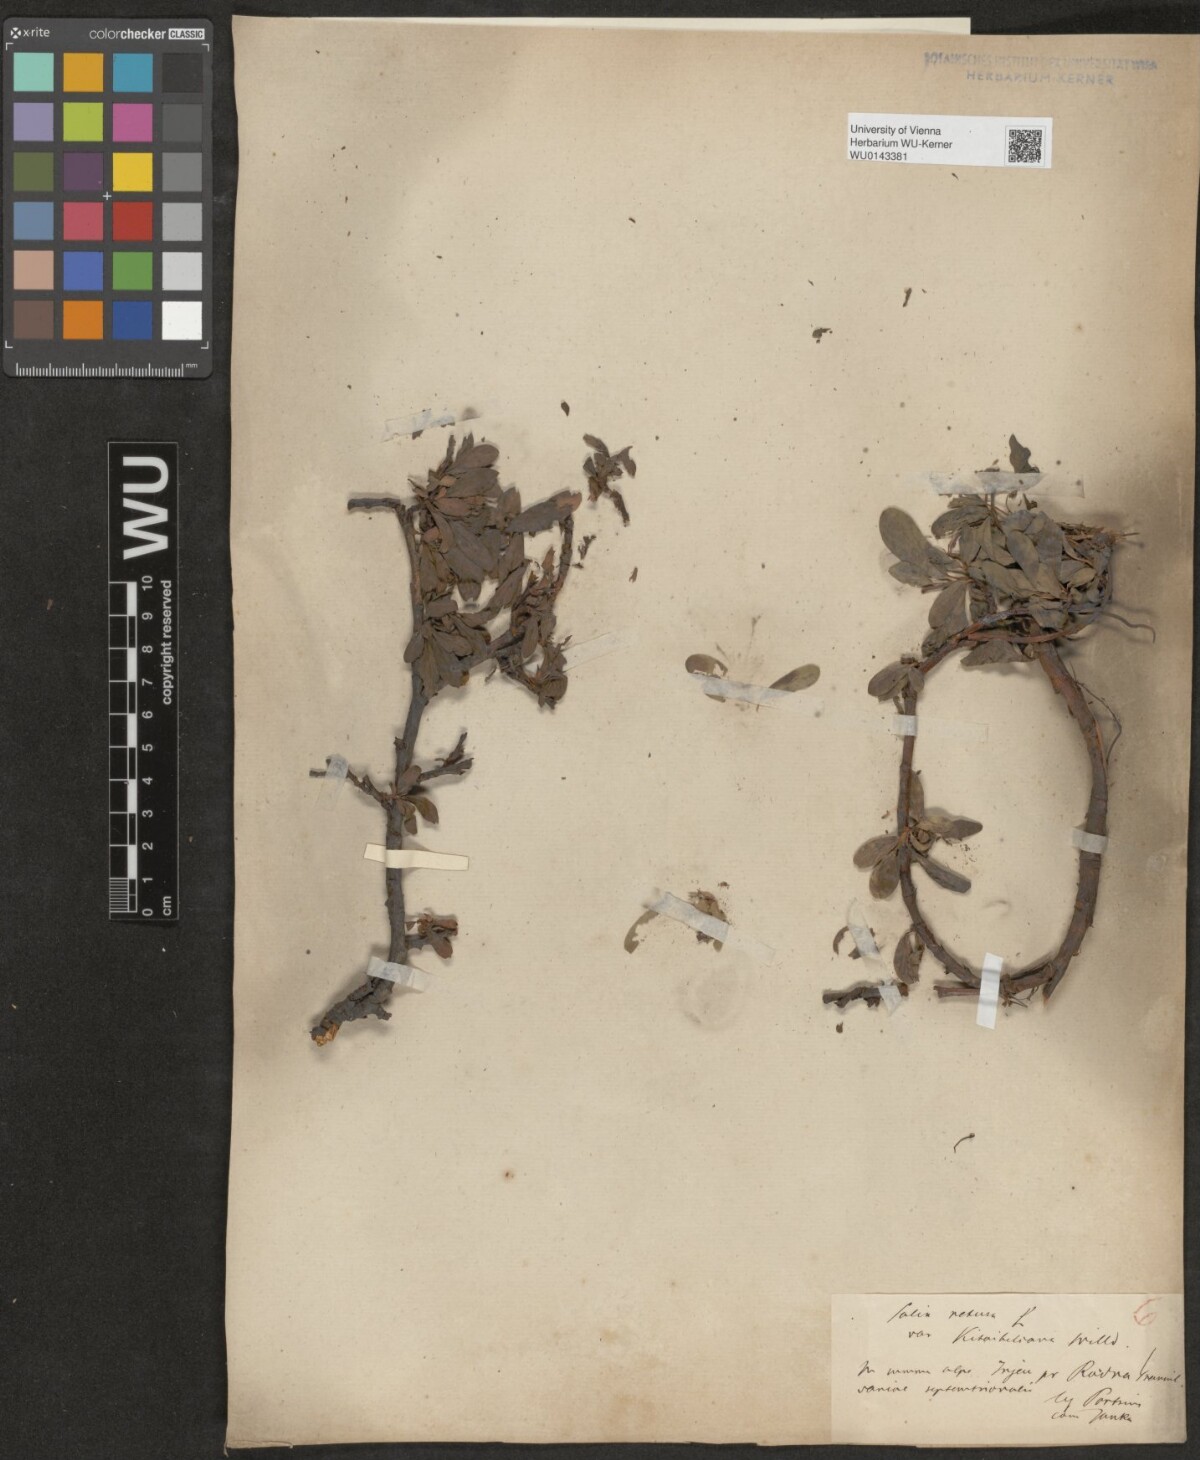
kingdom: Plantae
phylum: Tracheophyta
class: Magnoliopsida
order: Malpighiales
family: Salicaceae
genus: Salix
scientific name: Salix retusa
